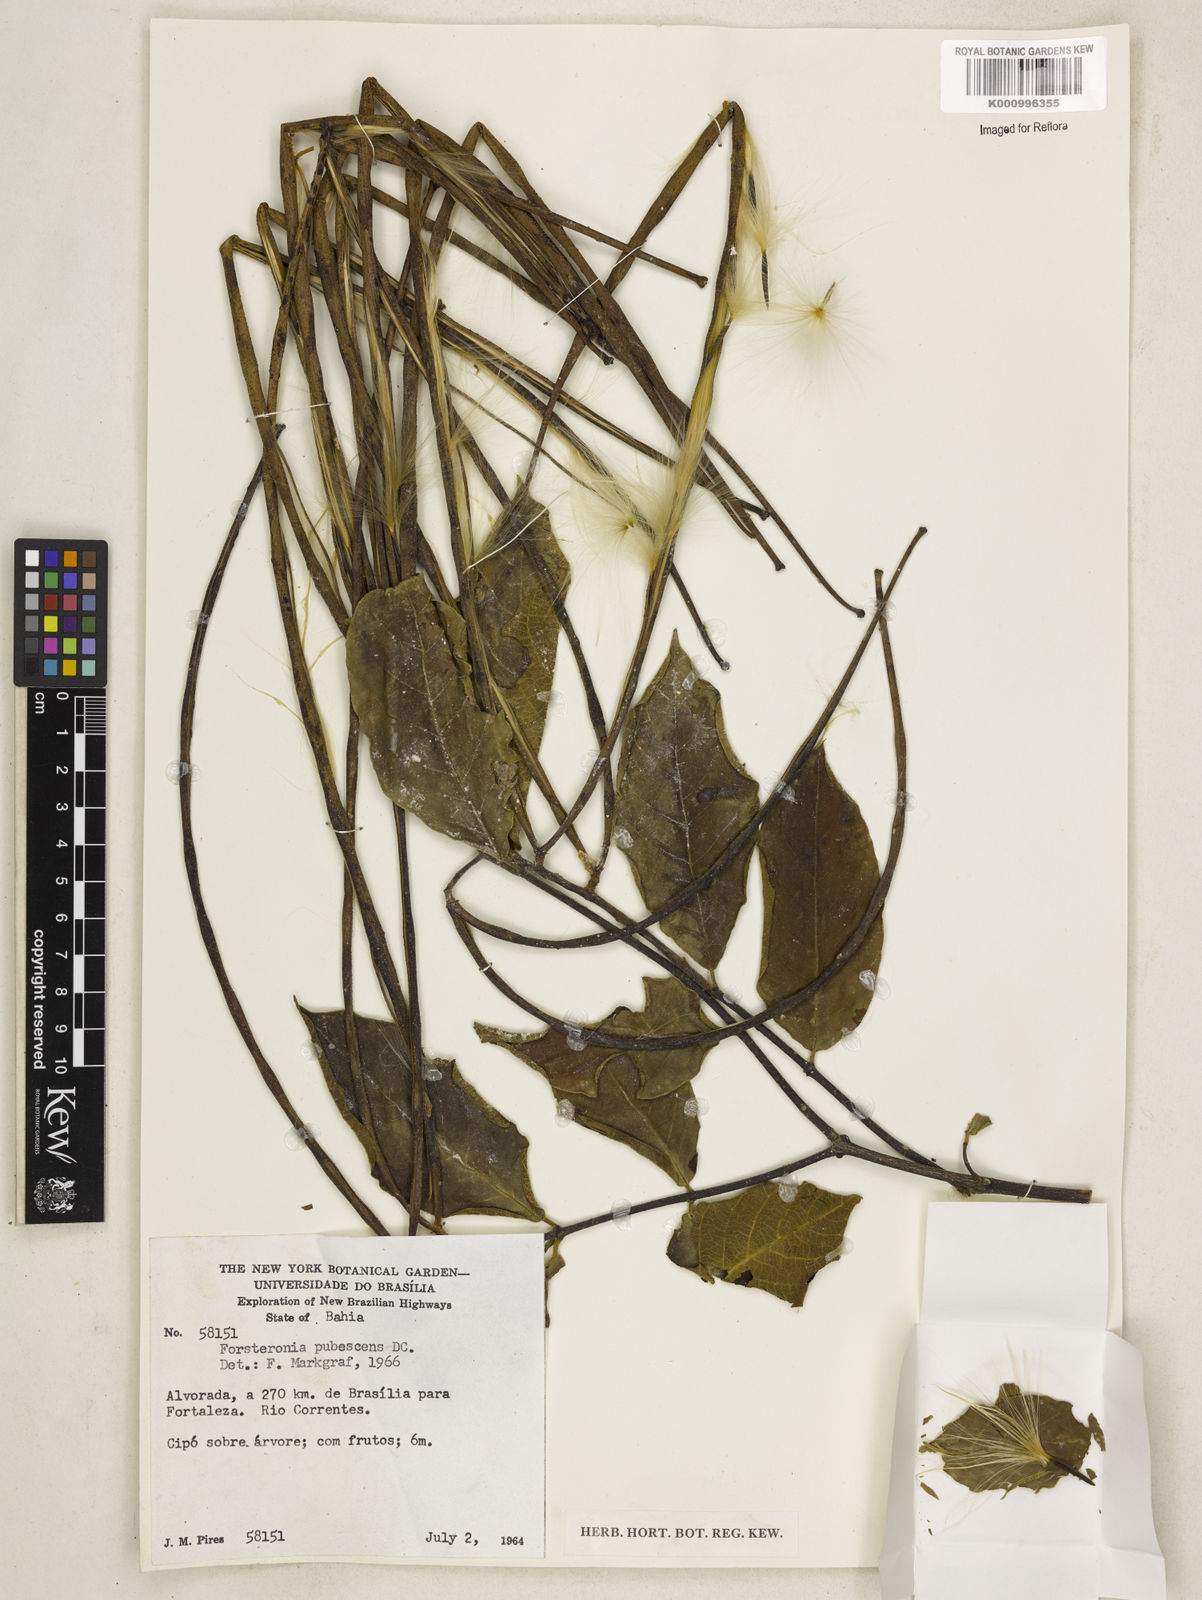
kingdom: Plantae
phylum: Tracheophyta
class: Magnoliopsida
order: Gentianales
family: Apocynaceae
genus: Forsteronia
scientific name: Forsteronia
